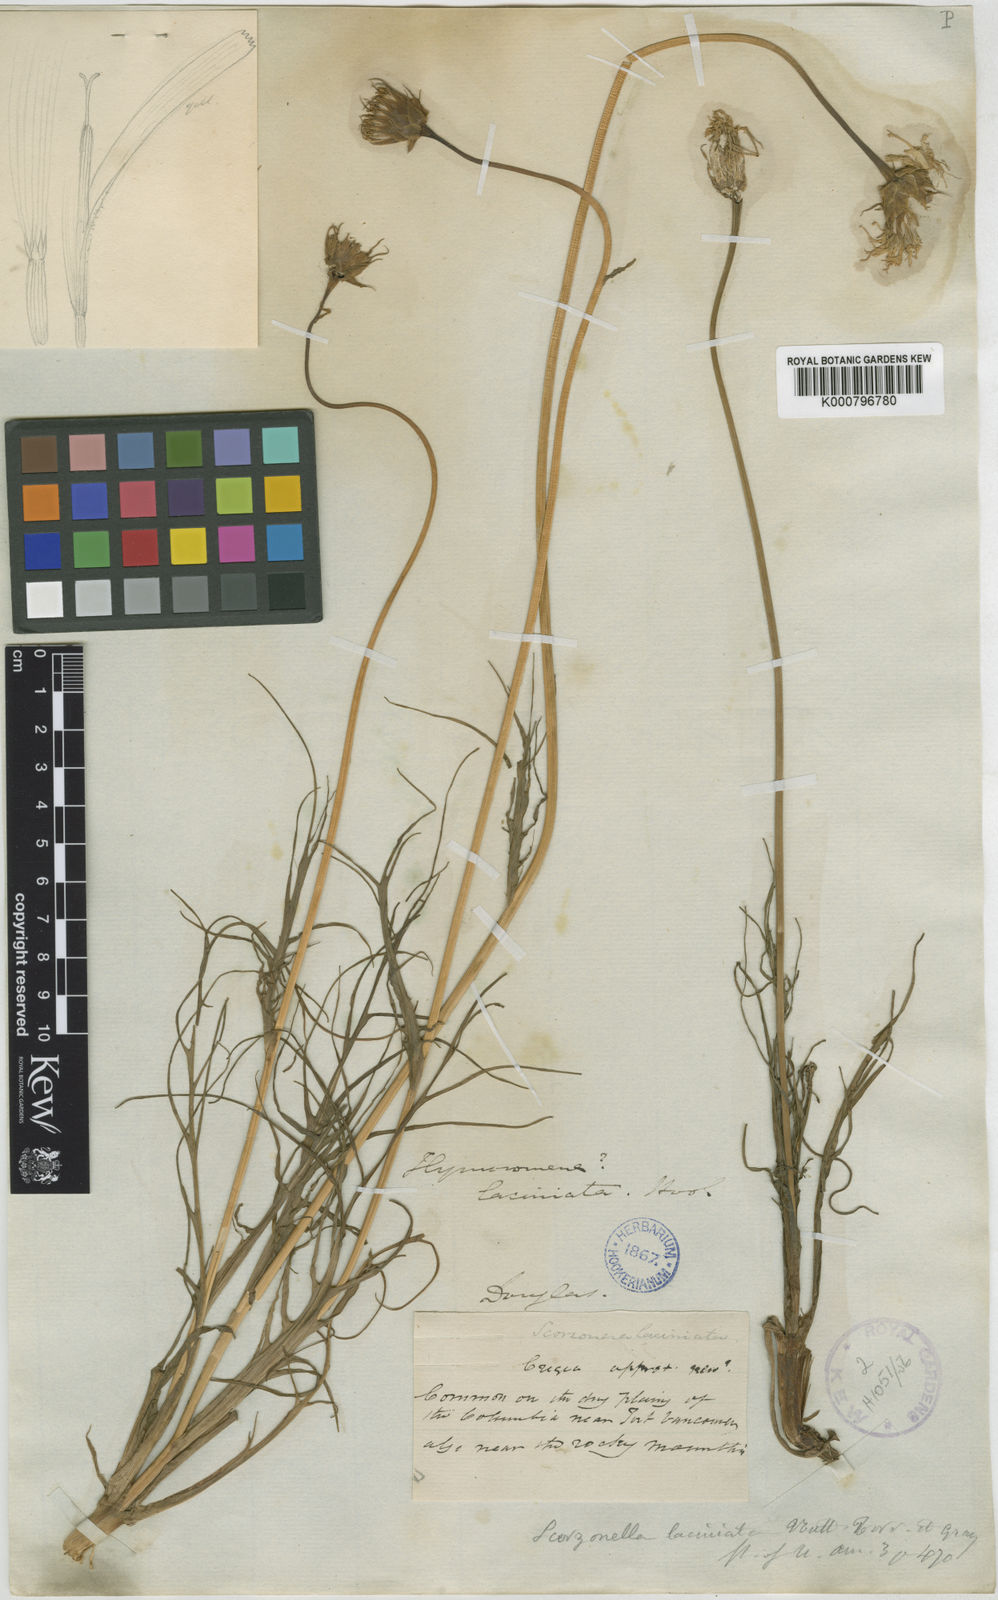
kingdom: Plantae
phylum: Tracheophyta
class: Magnoliopsida
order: Asterales
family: Asteraceae
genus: Microseris
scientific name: Microseris laciniata
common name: Cut-leaf microseris
